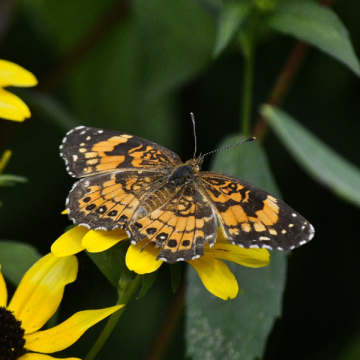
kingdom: Animalia
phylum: Arthropoda
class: Insecta
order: Lepidoptera
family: Nymphalidae
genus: Chlosyne
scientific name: Chlosyne nycteis
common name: Silvery Checkerspot
